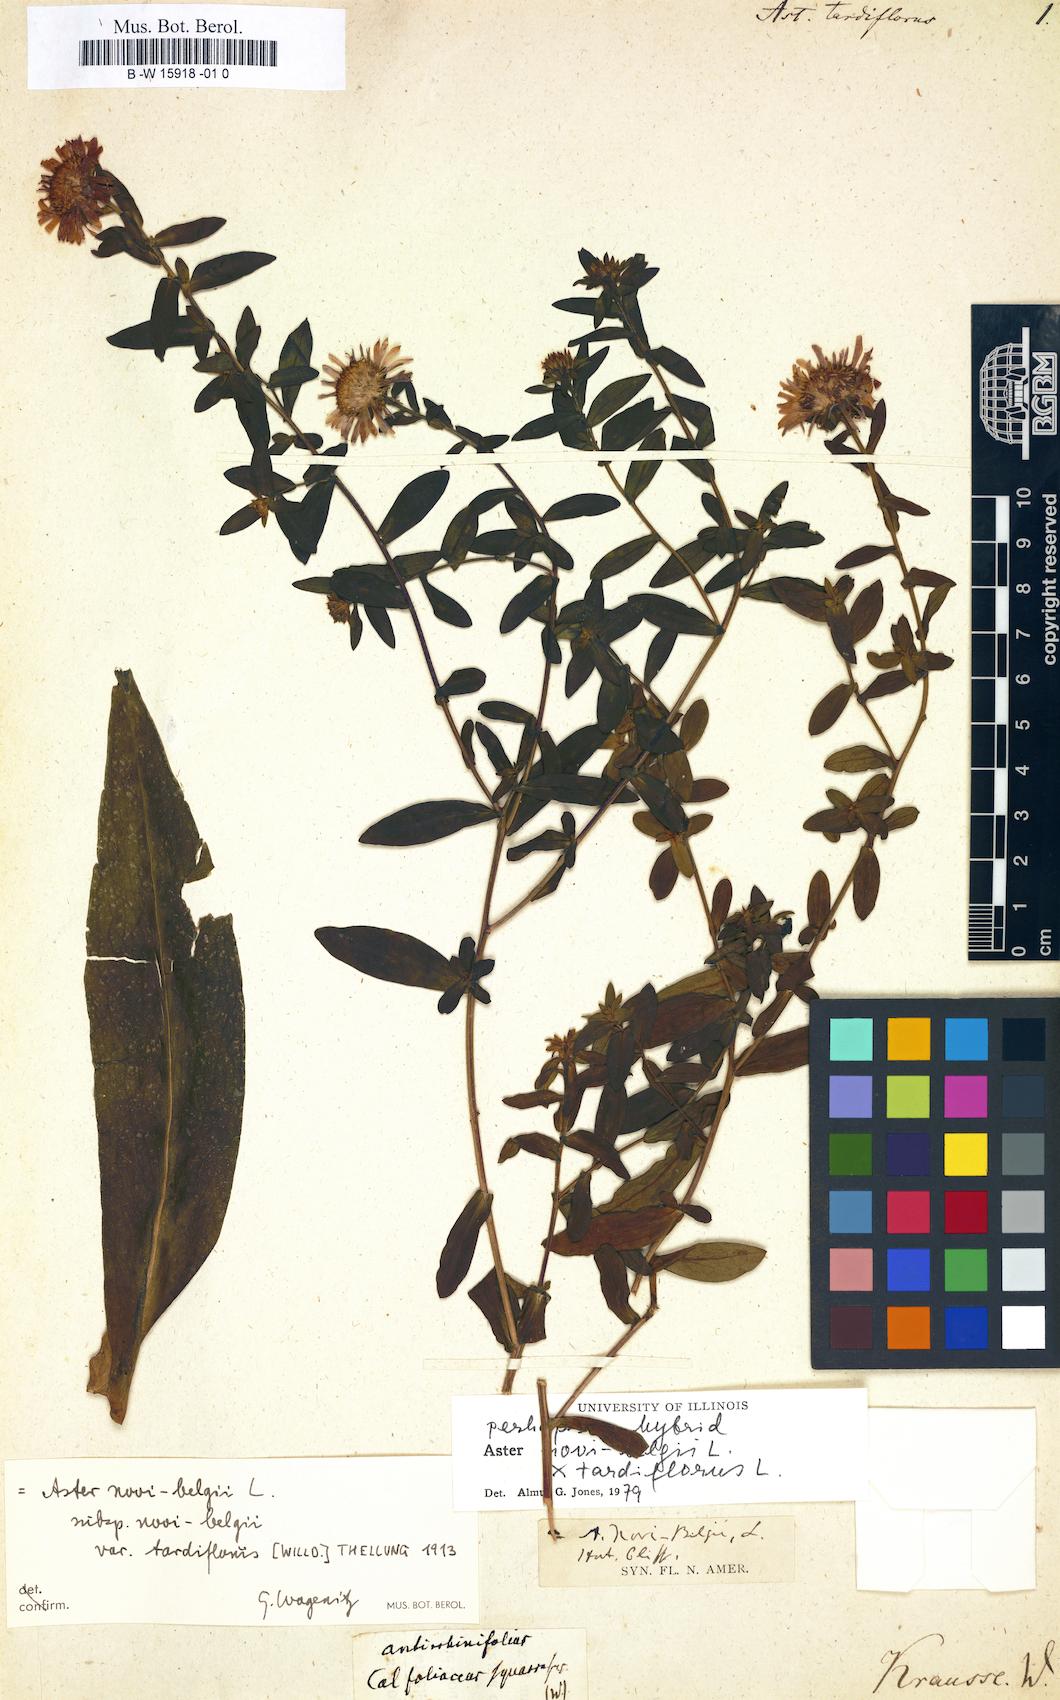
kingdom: Plantae
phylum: Tracheophyta
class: Magnoliopsida
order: Asterales
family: Asteraceae
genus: Symphyotrichum
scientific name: Symphyotrichum tardiflorum
